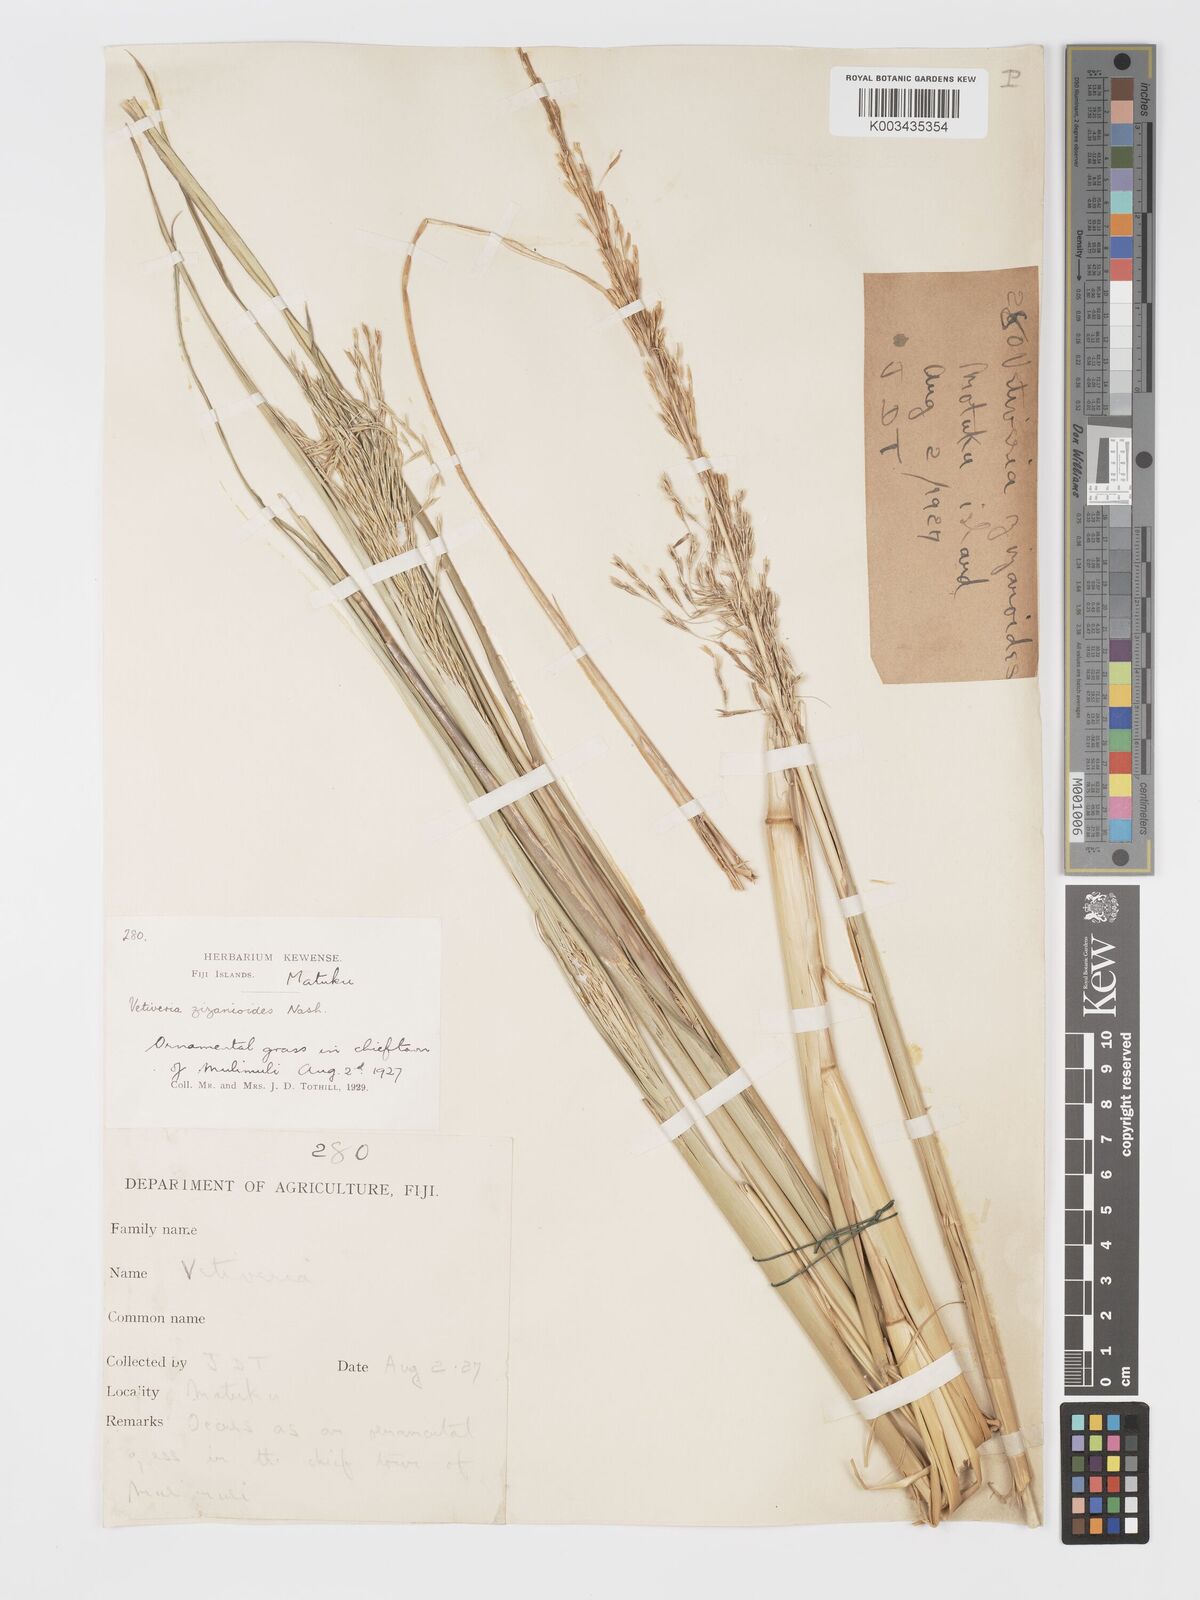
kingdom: Plantae
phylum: Tracheophyta
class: Liliopsida
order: Poales
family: Poaceae
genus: Chrysopogon
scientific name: Chrysopogon zizanioides
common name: False beardgrass
